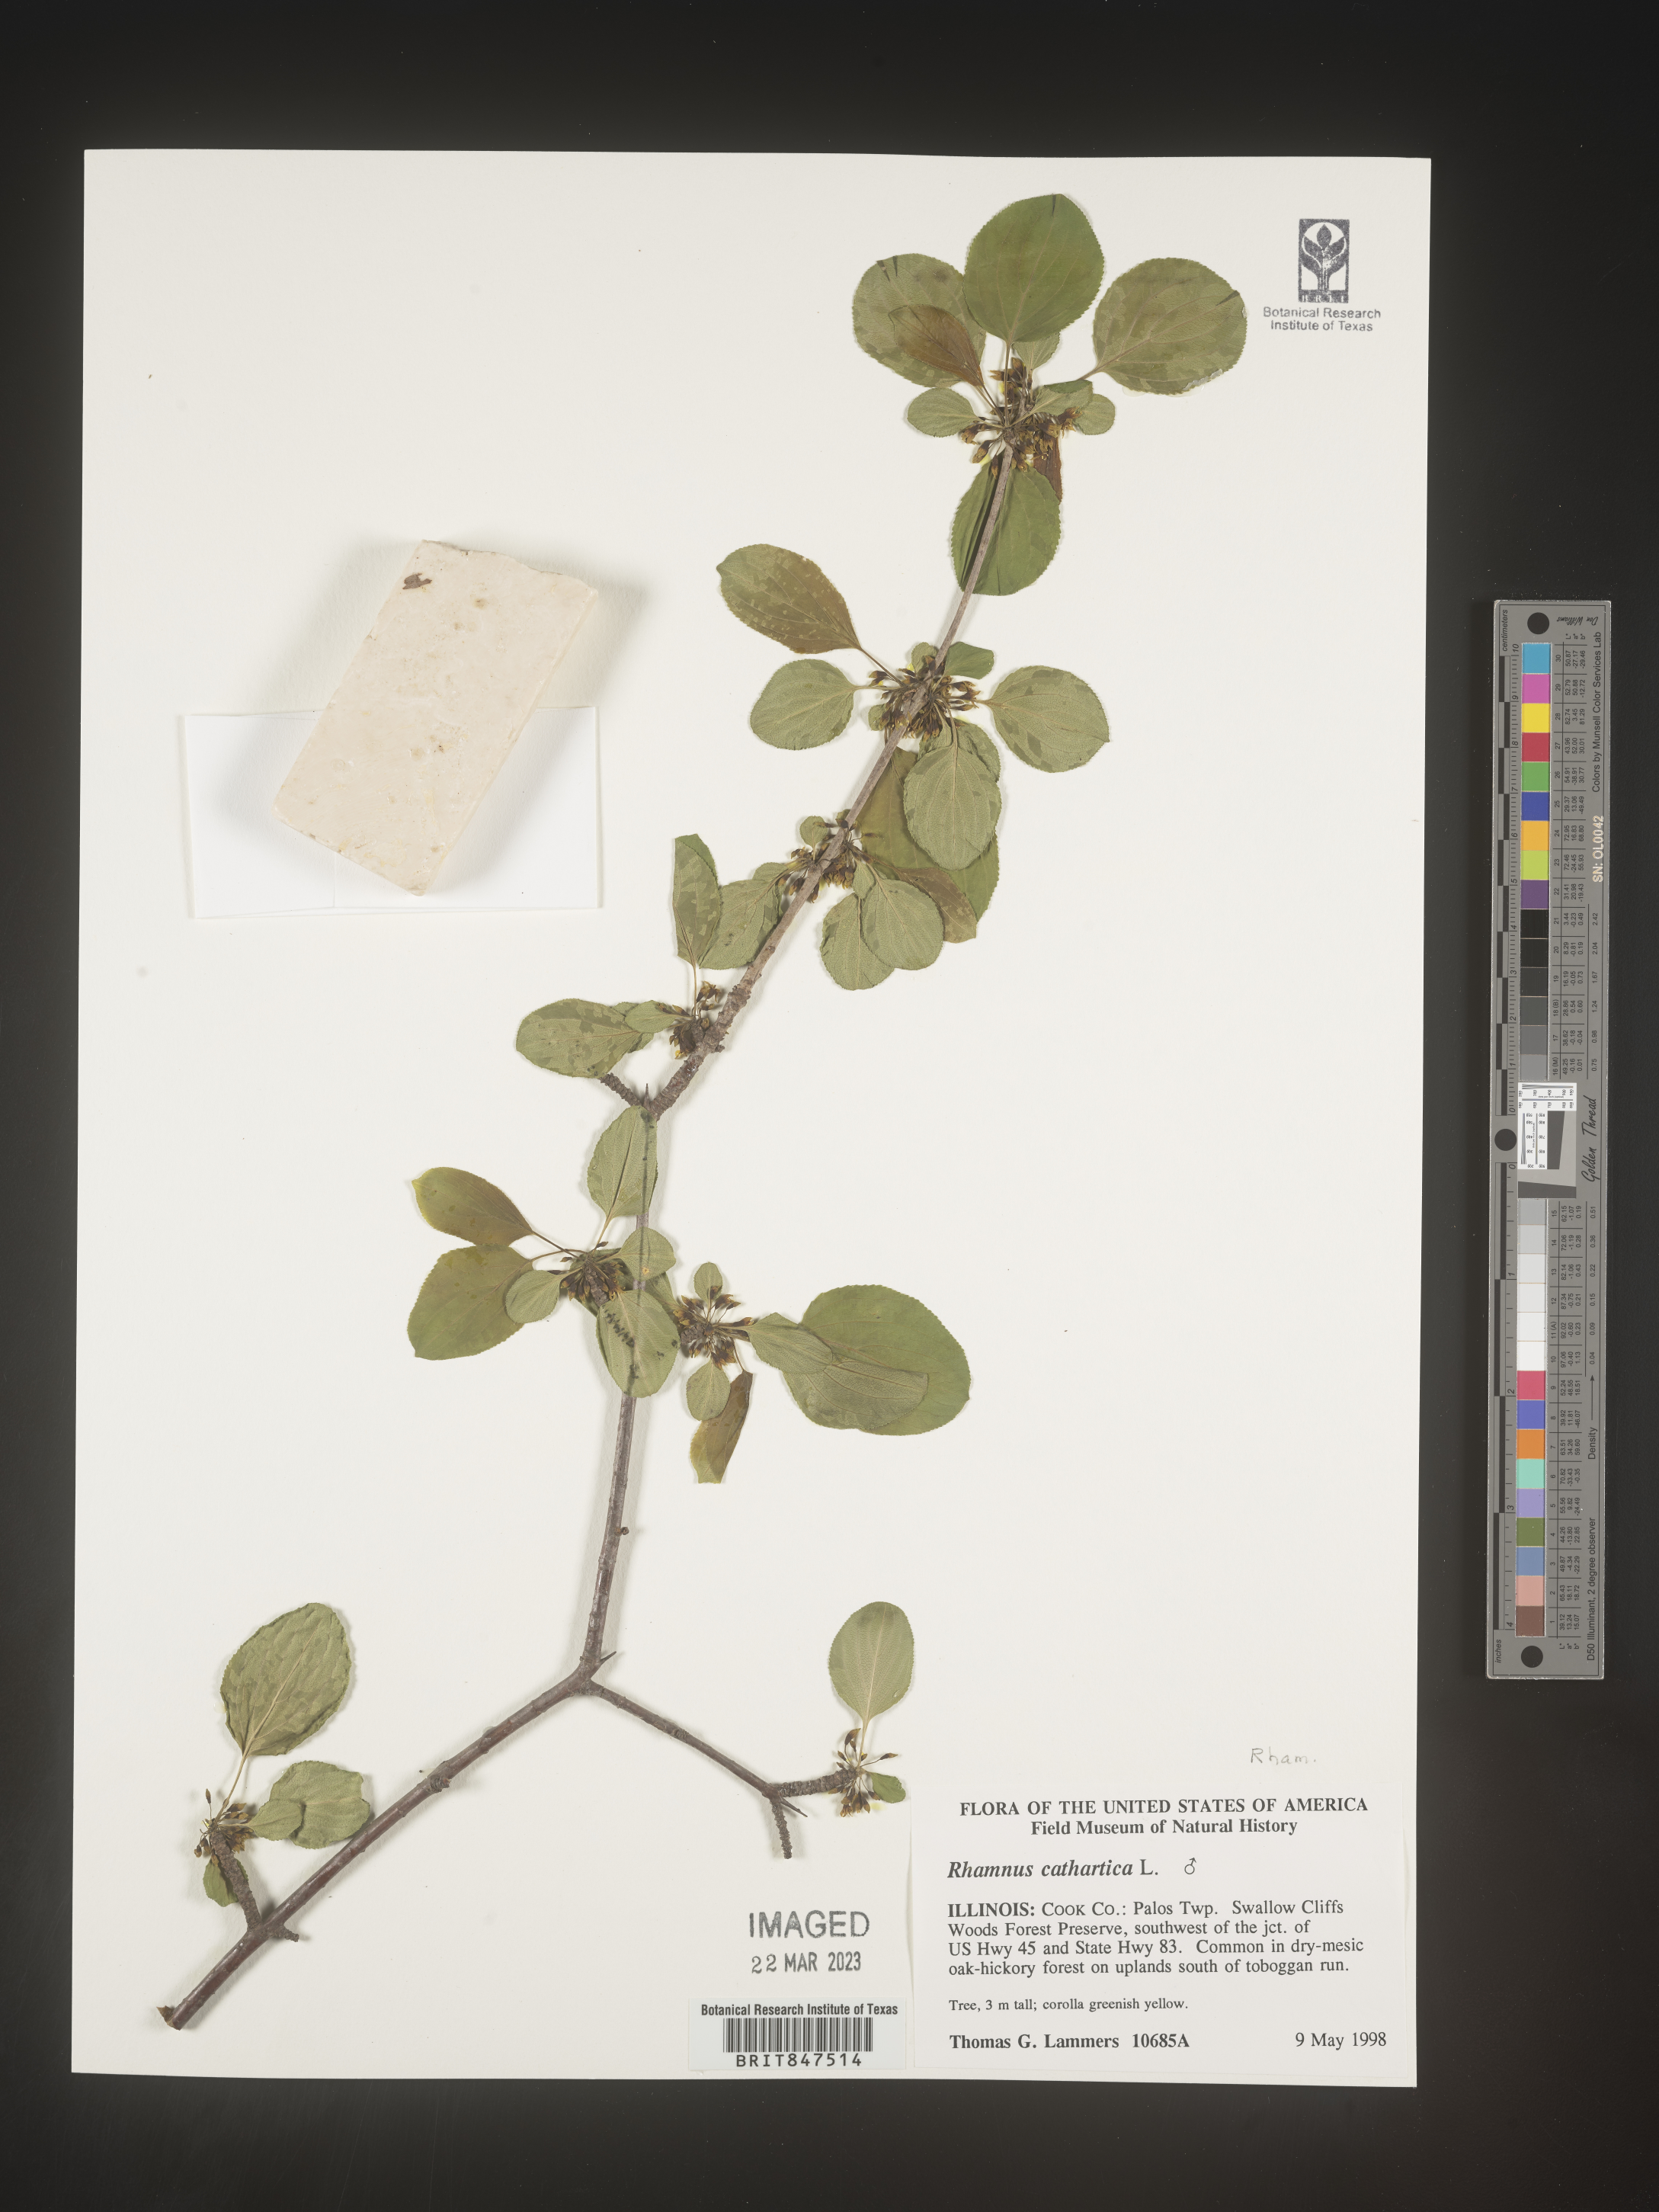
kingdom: Plantae
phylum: Tracheophyta
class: Magnoliopsida
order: Rosales
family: Rhamnaceae
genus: Rhamnus
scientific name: Rhamnus cathartica
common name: Common buckthorn
